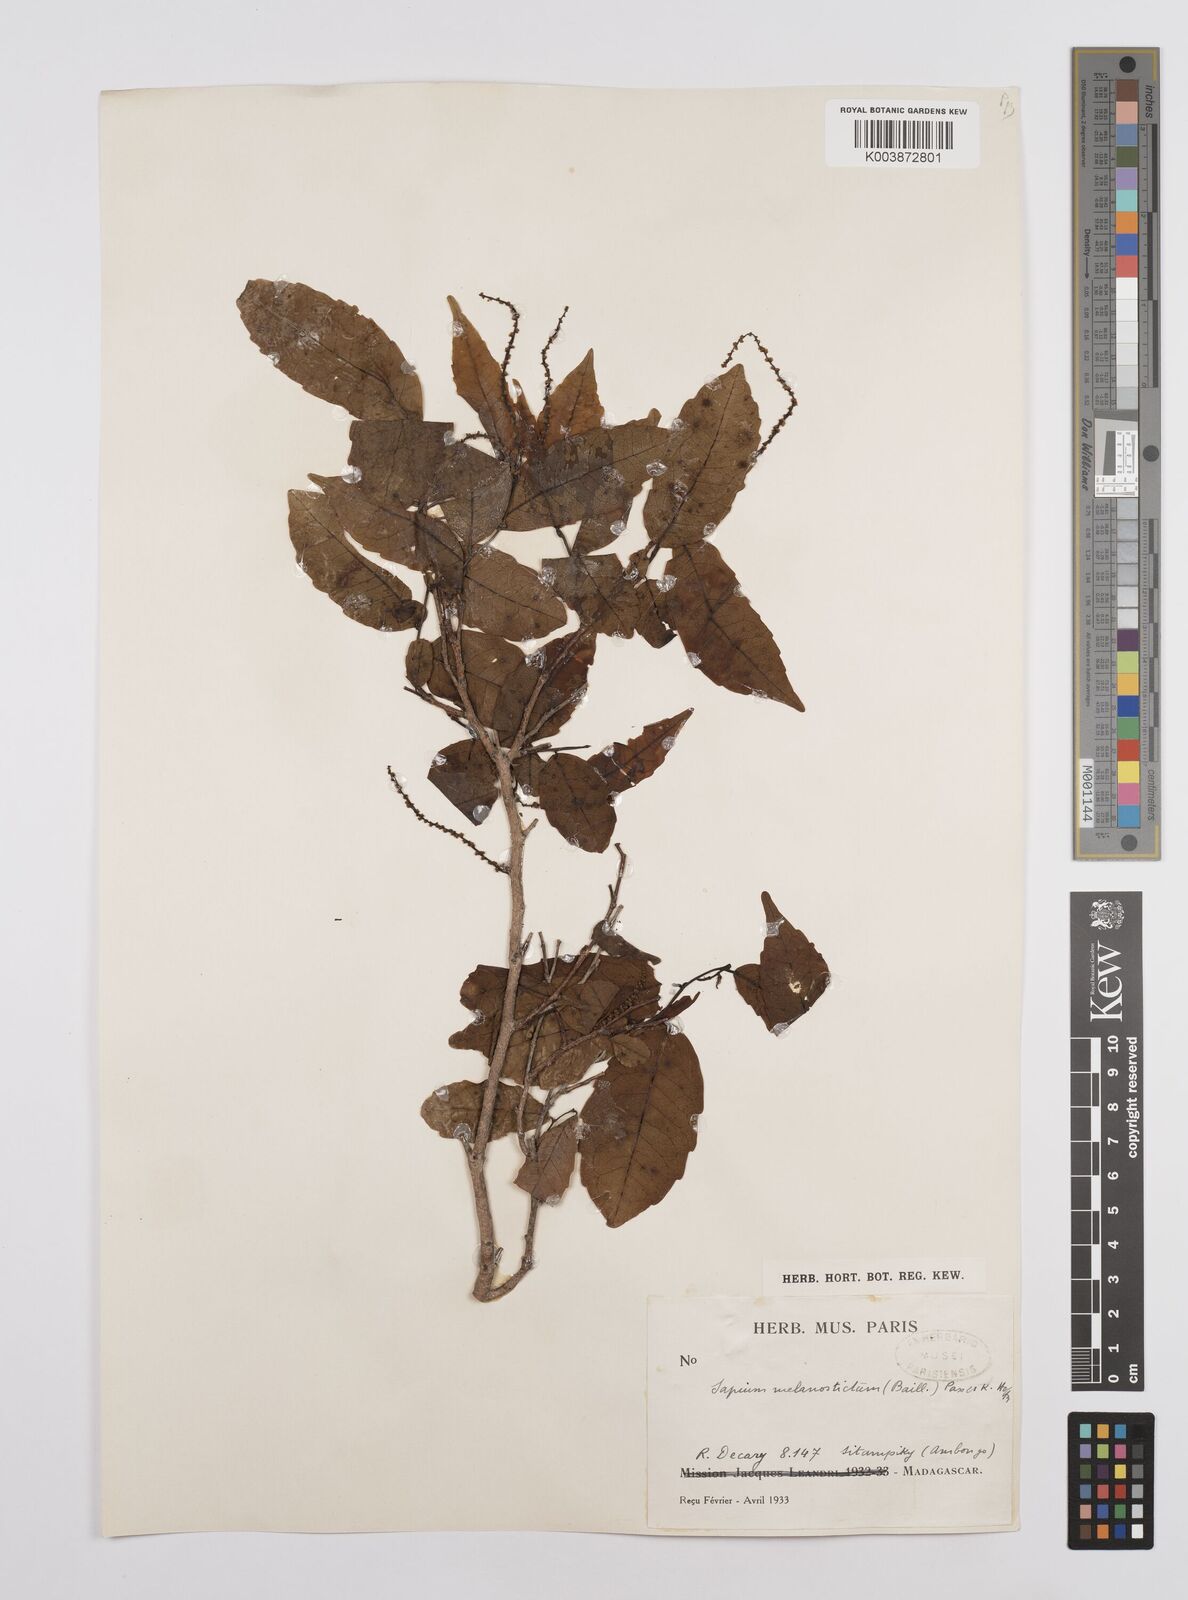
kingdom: Plantae
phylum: Tracheophyta
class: Magnoliopsida
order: Malpighiales
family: Euphorbiaceae
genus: Sclerocroton
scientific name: Sclerocroton melanostictus
